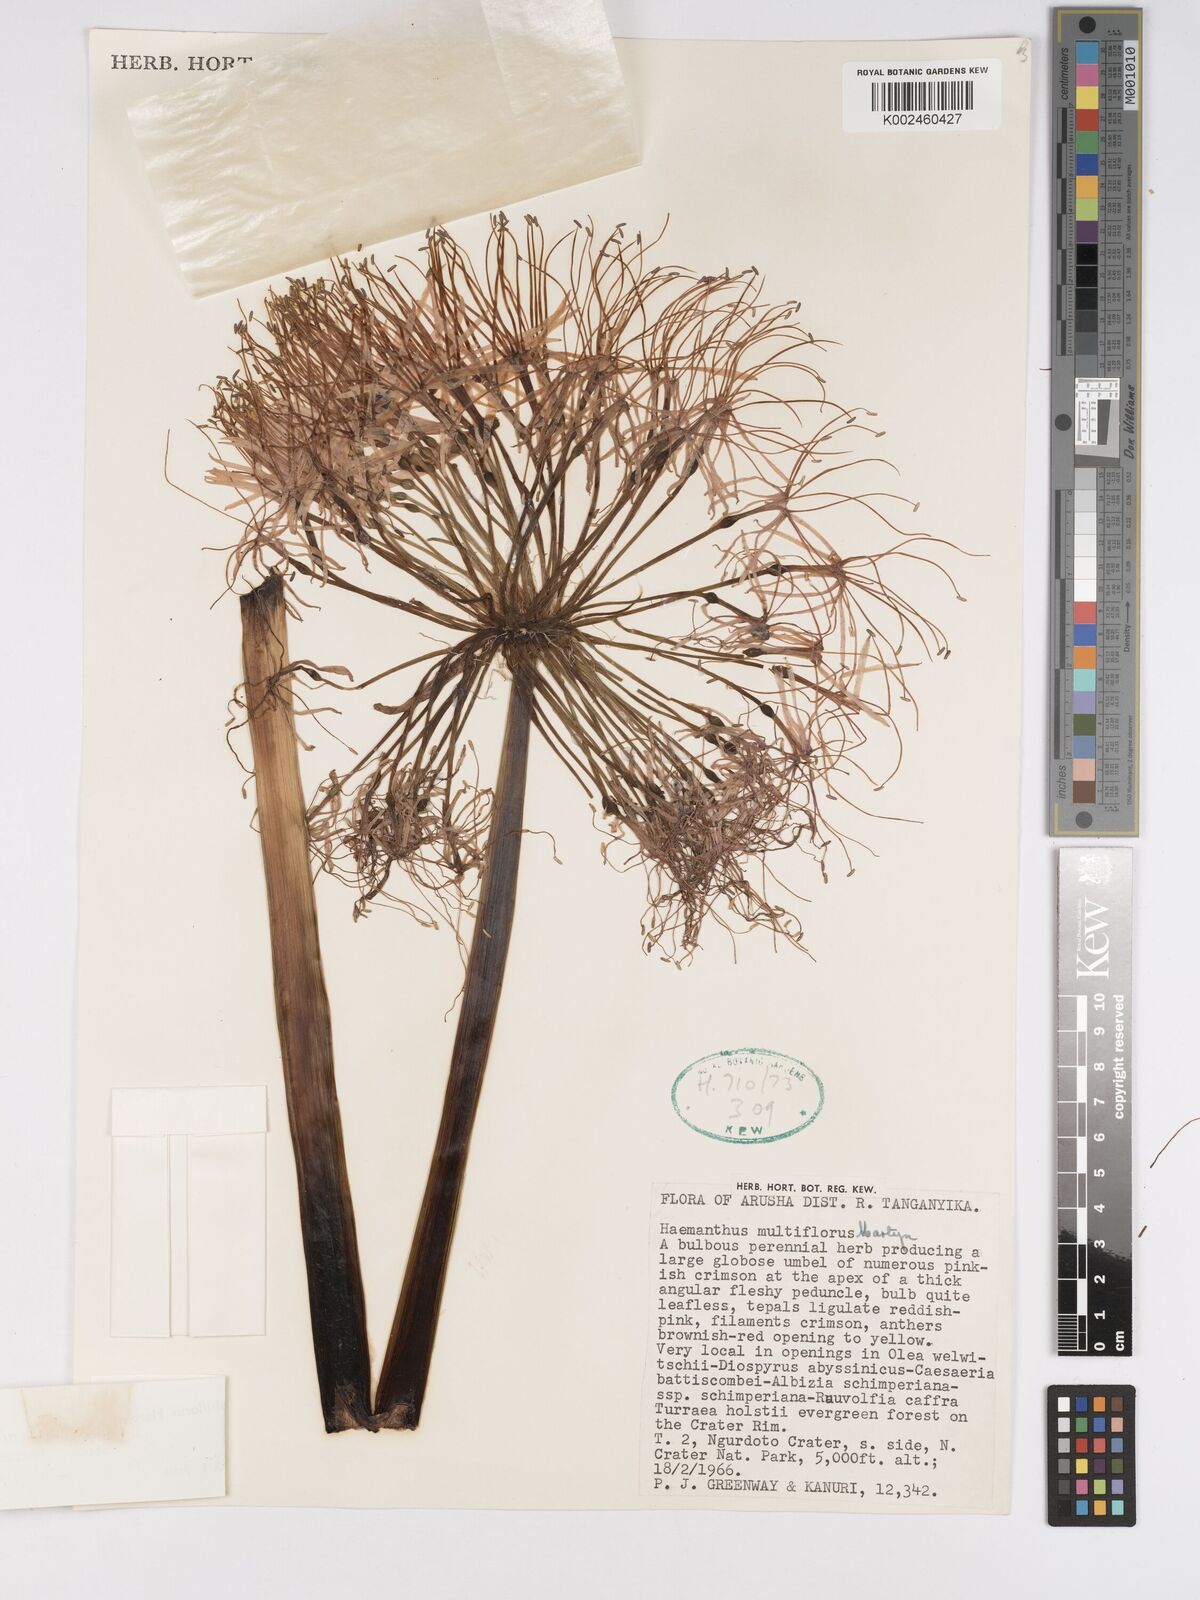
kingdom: Plantae
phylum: Tracheophyta
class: Liliopsida
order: Asparagales
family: Amaryllidaceae
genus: Scadoxus
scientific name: Scadoxus multiflorus
